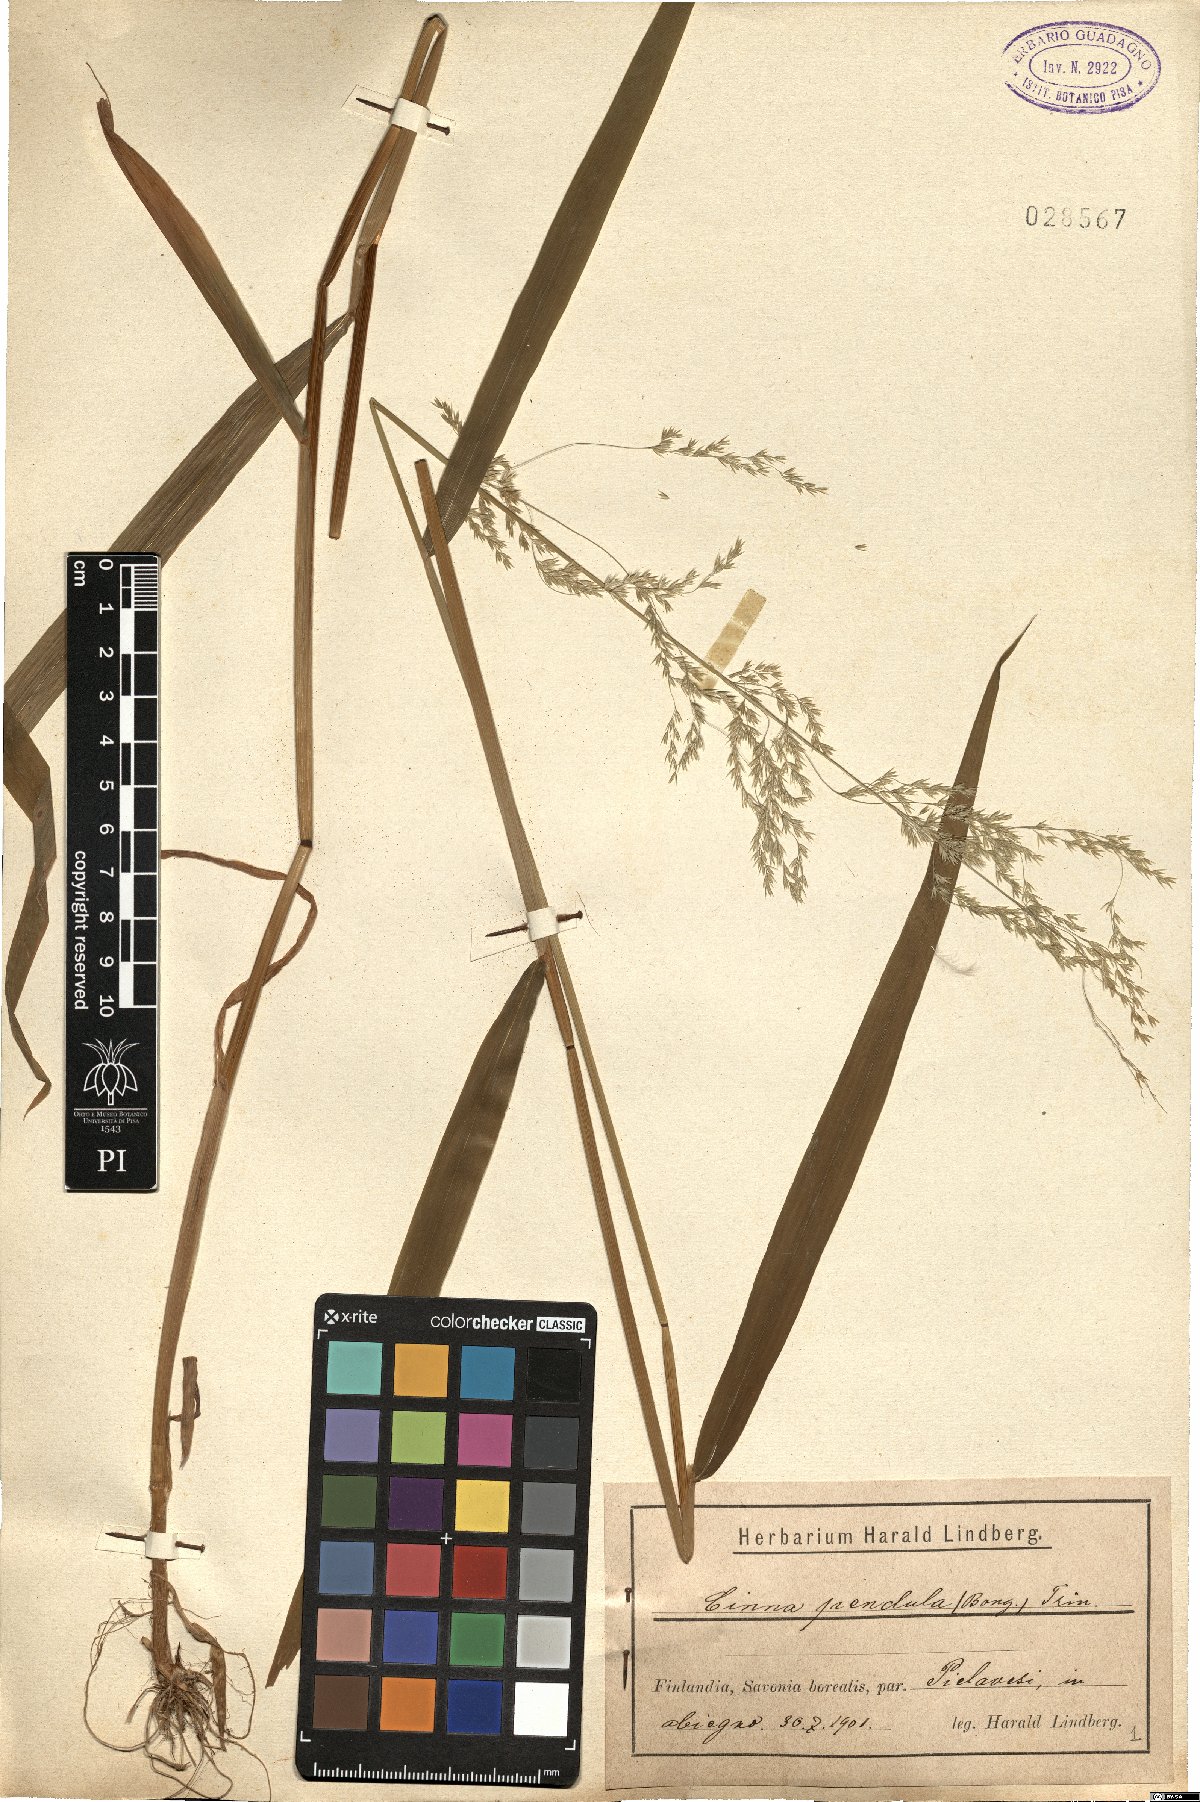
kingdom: Plantae
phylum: Tracheophyta
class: Liliopsida
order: Poales
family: Poaceae
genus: Cinna
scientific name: Cinna latifolia
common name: Drooping woodreed
